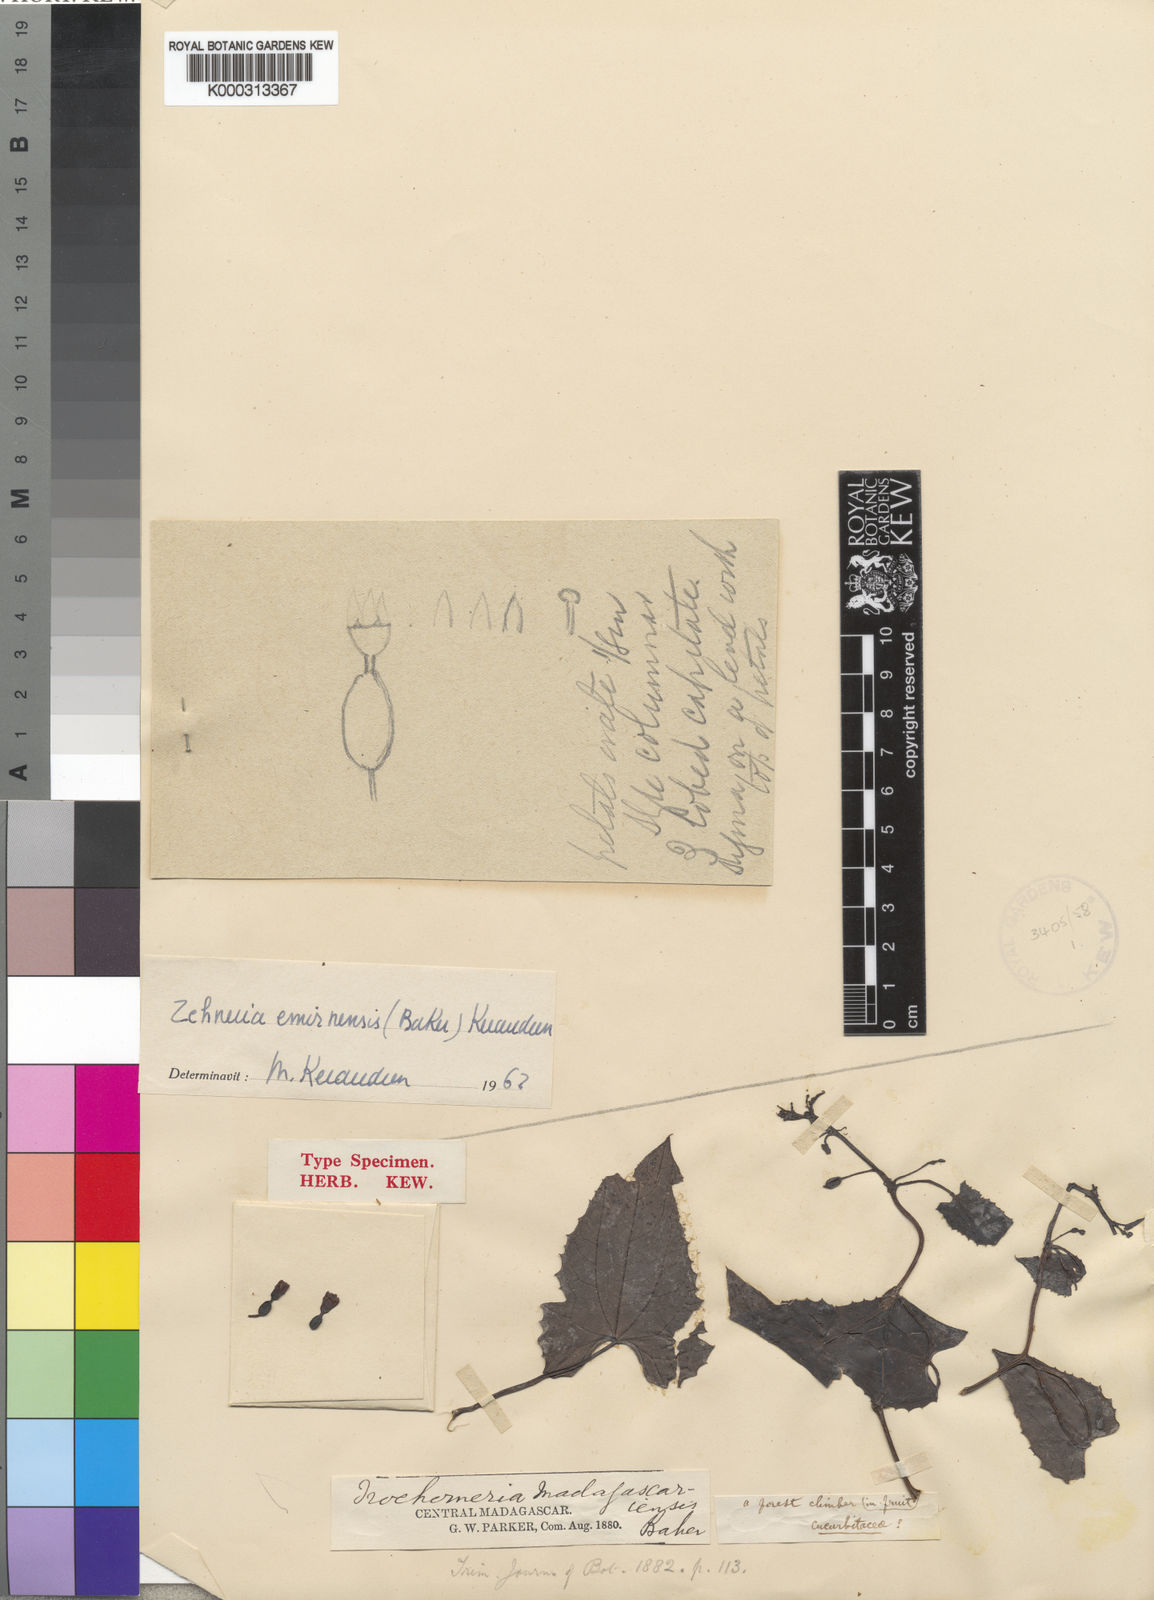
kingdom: Plantae
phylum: Tracheophyta
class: Magnoliopsida
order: Cucurbitales
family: Cucurbitaceae
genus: Zehneria
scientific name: Zehneria emirnensis
